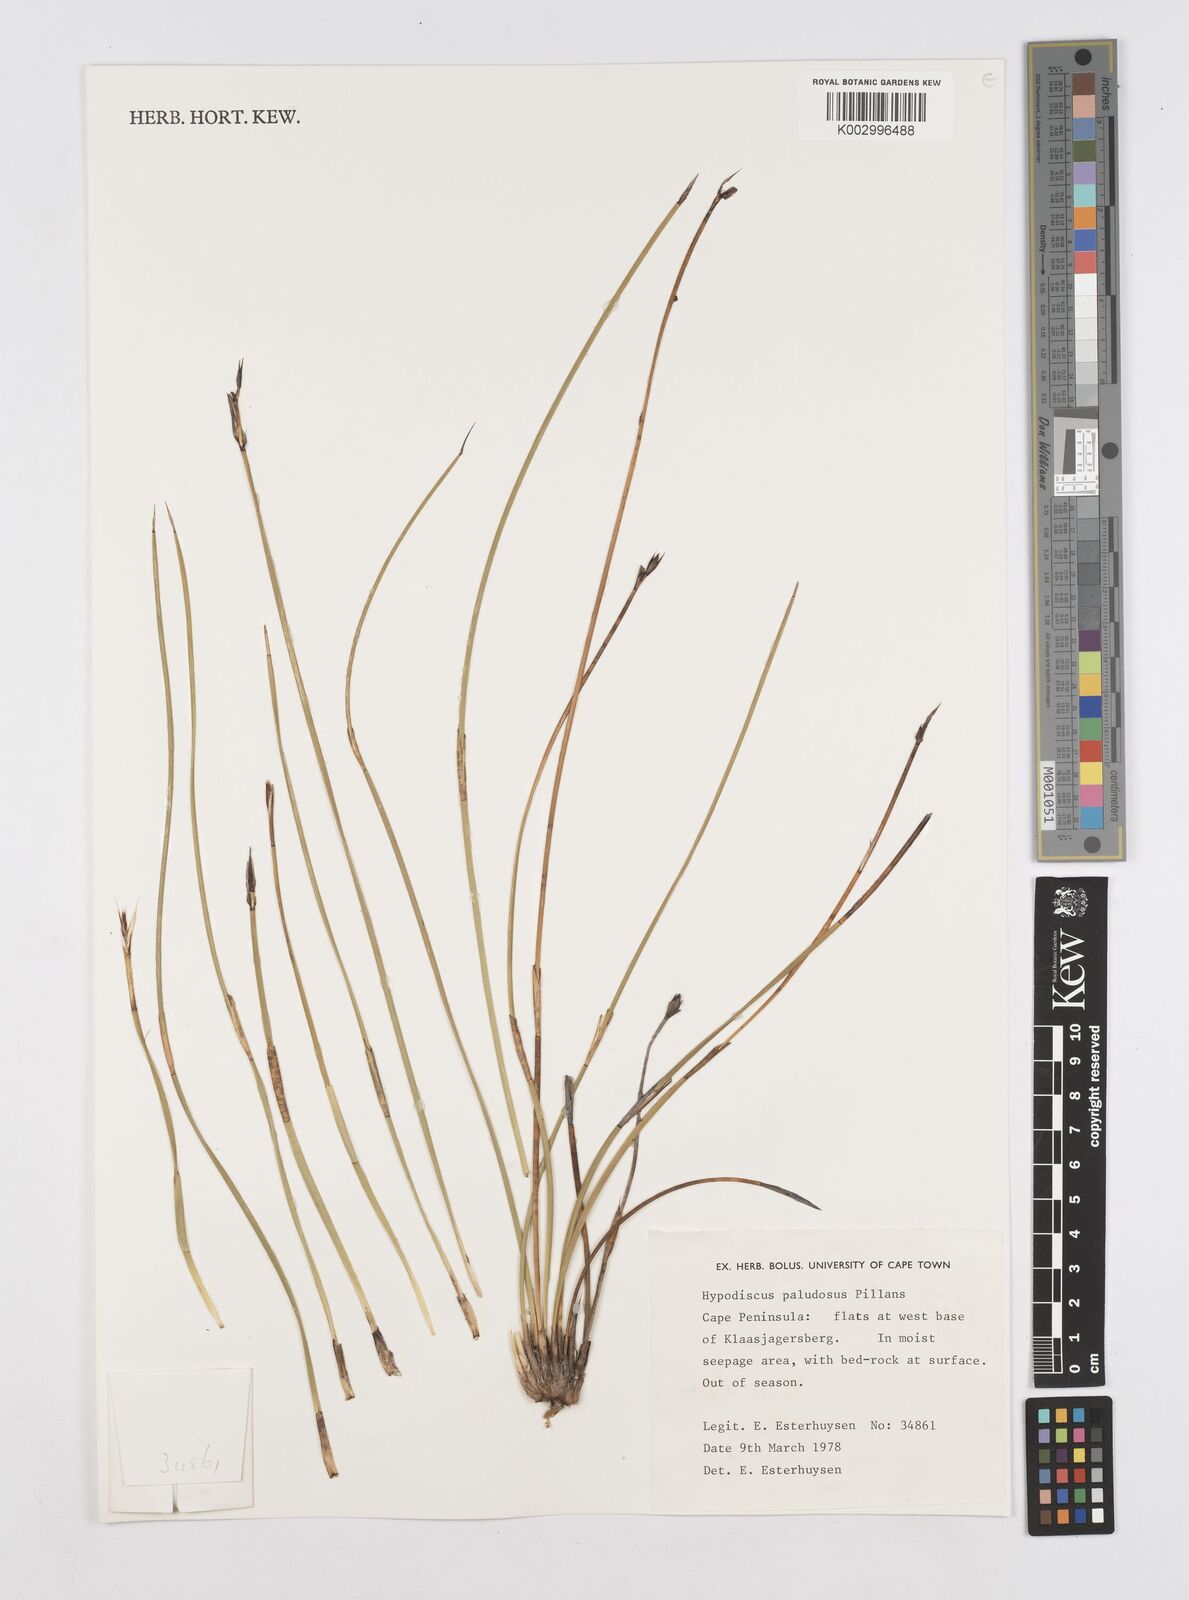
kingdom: Plantae
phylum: Tracheophyta
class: Liliopsida
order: Poales
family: Restionaceae
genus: Hypodiscus
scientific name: Hypodiscus rugosus
